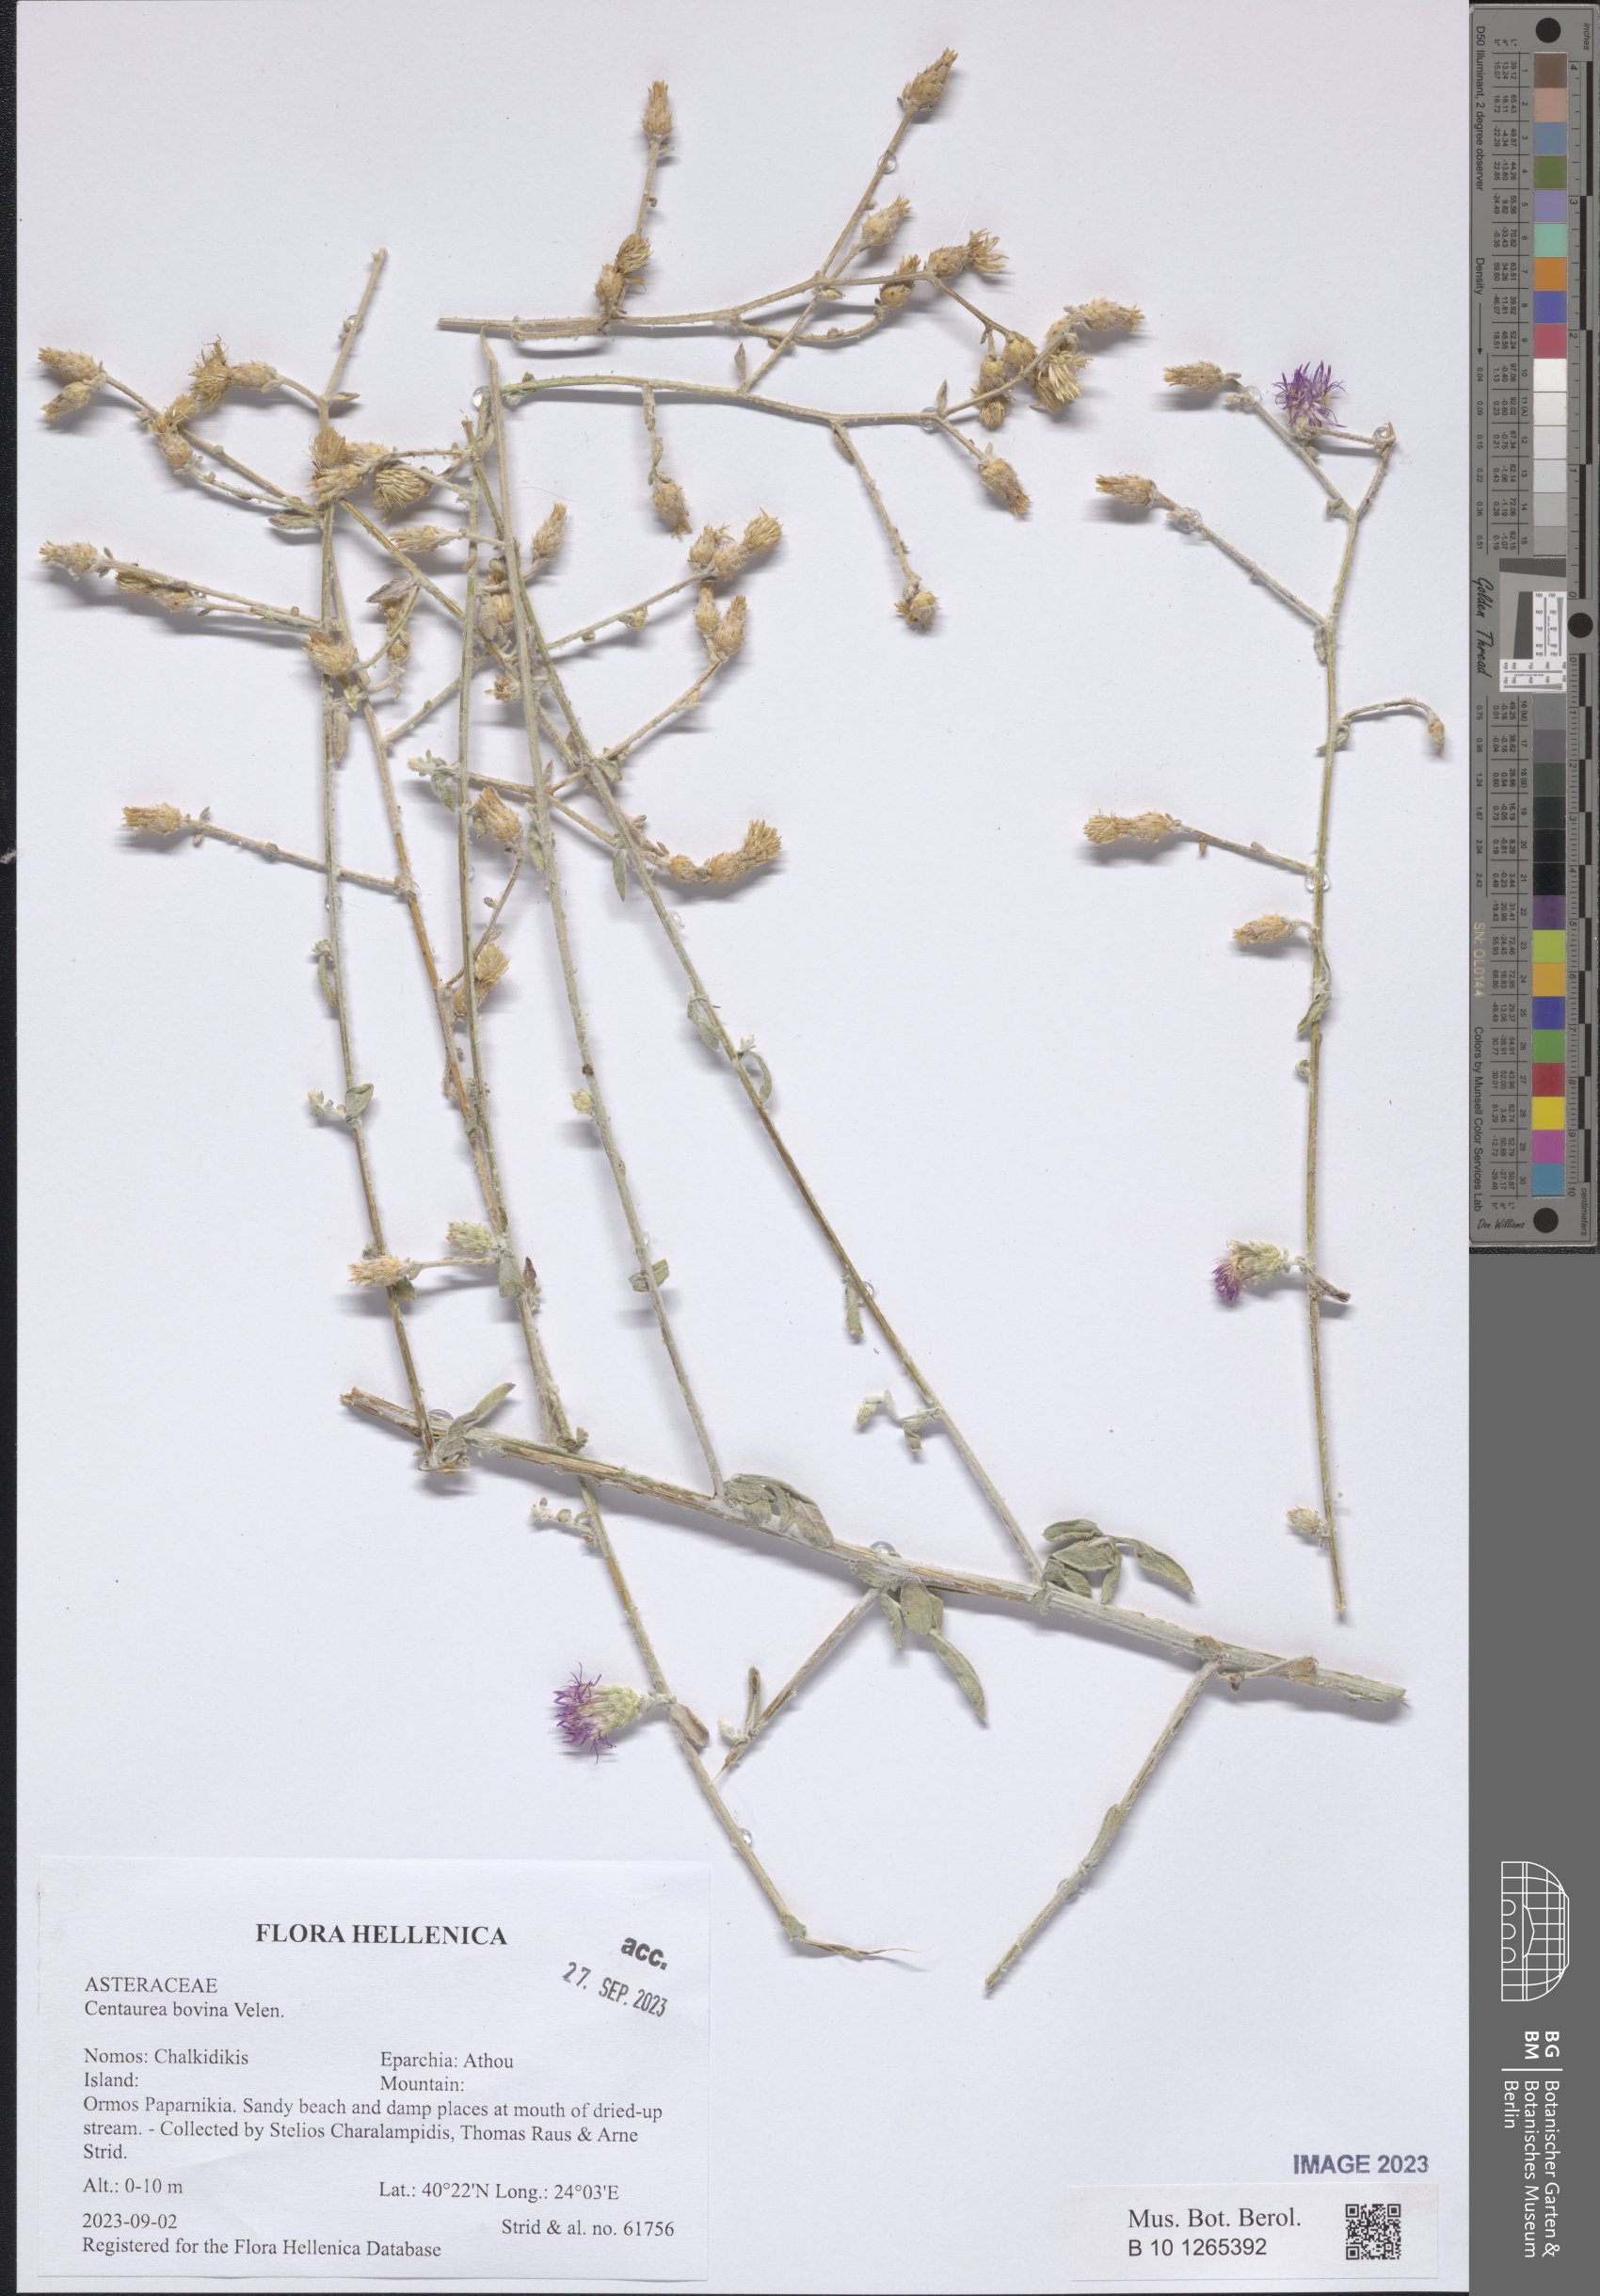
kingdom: Plantae
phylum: Tracheophyta
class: Magnoliopsida
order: Asterales
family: Asteraceae
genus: Centaurea
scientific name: Centaurea bovina
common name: Pasture knapweed
